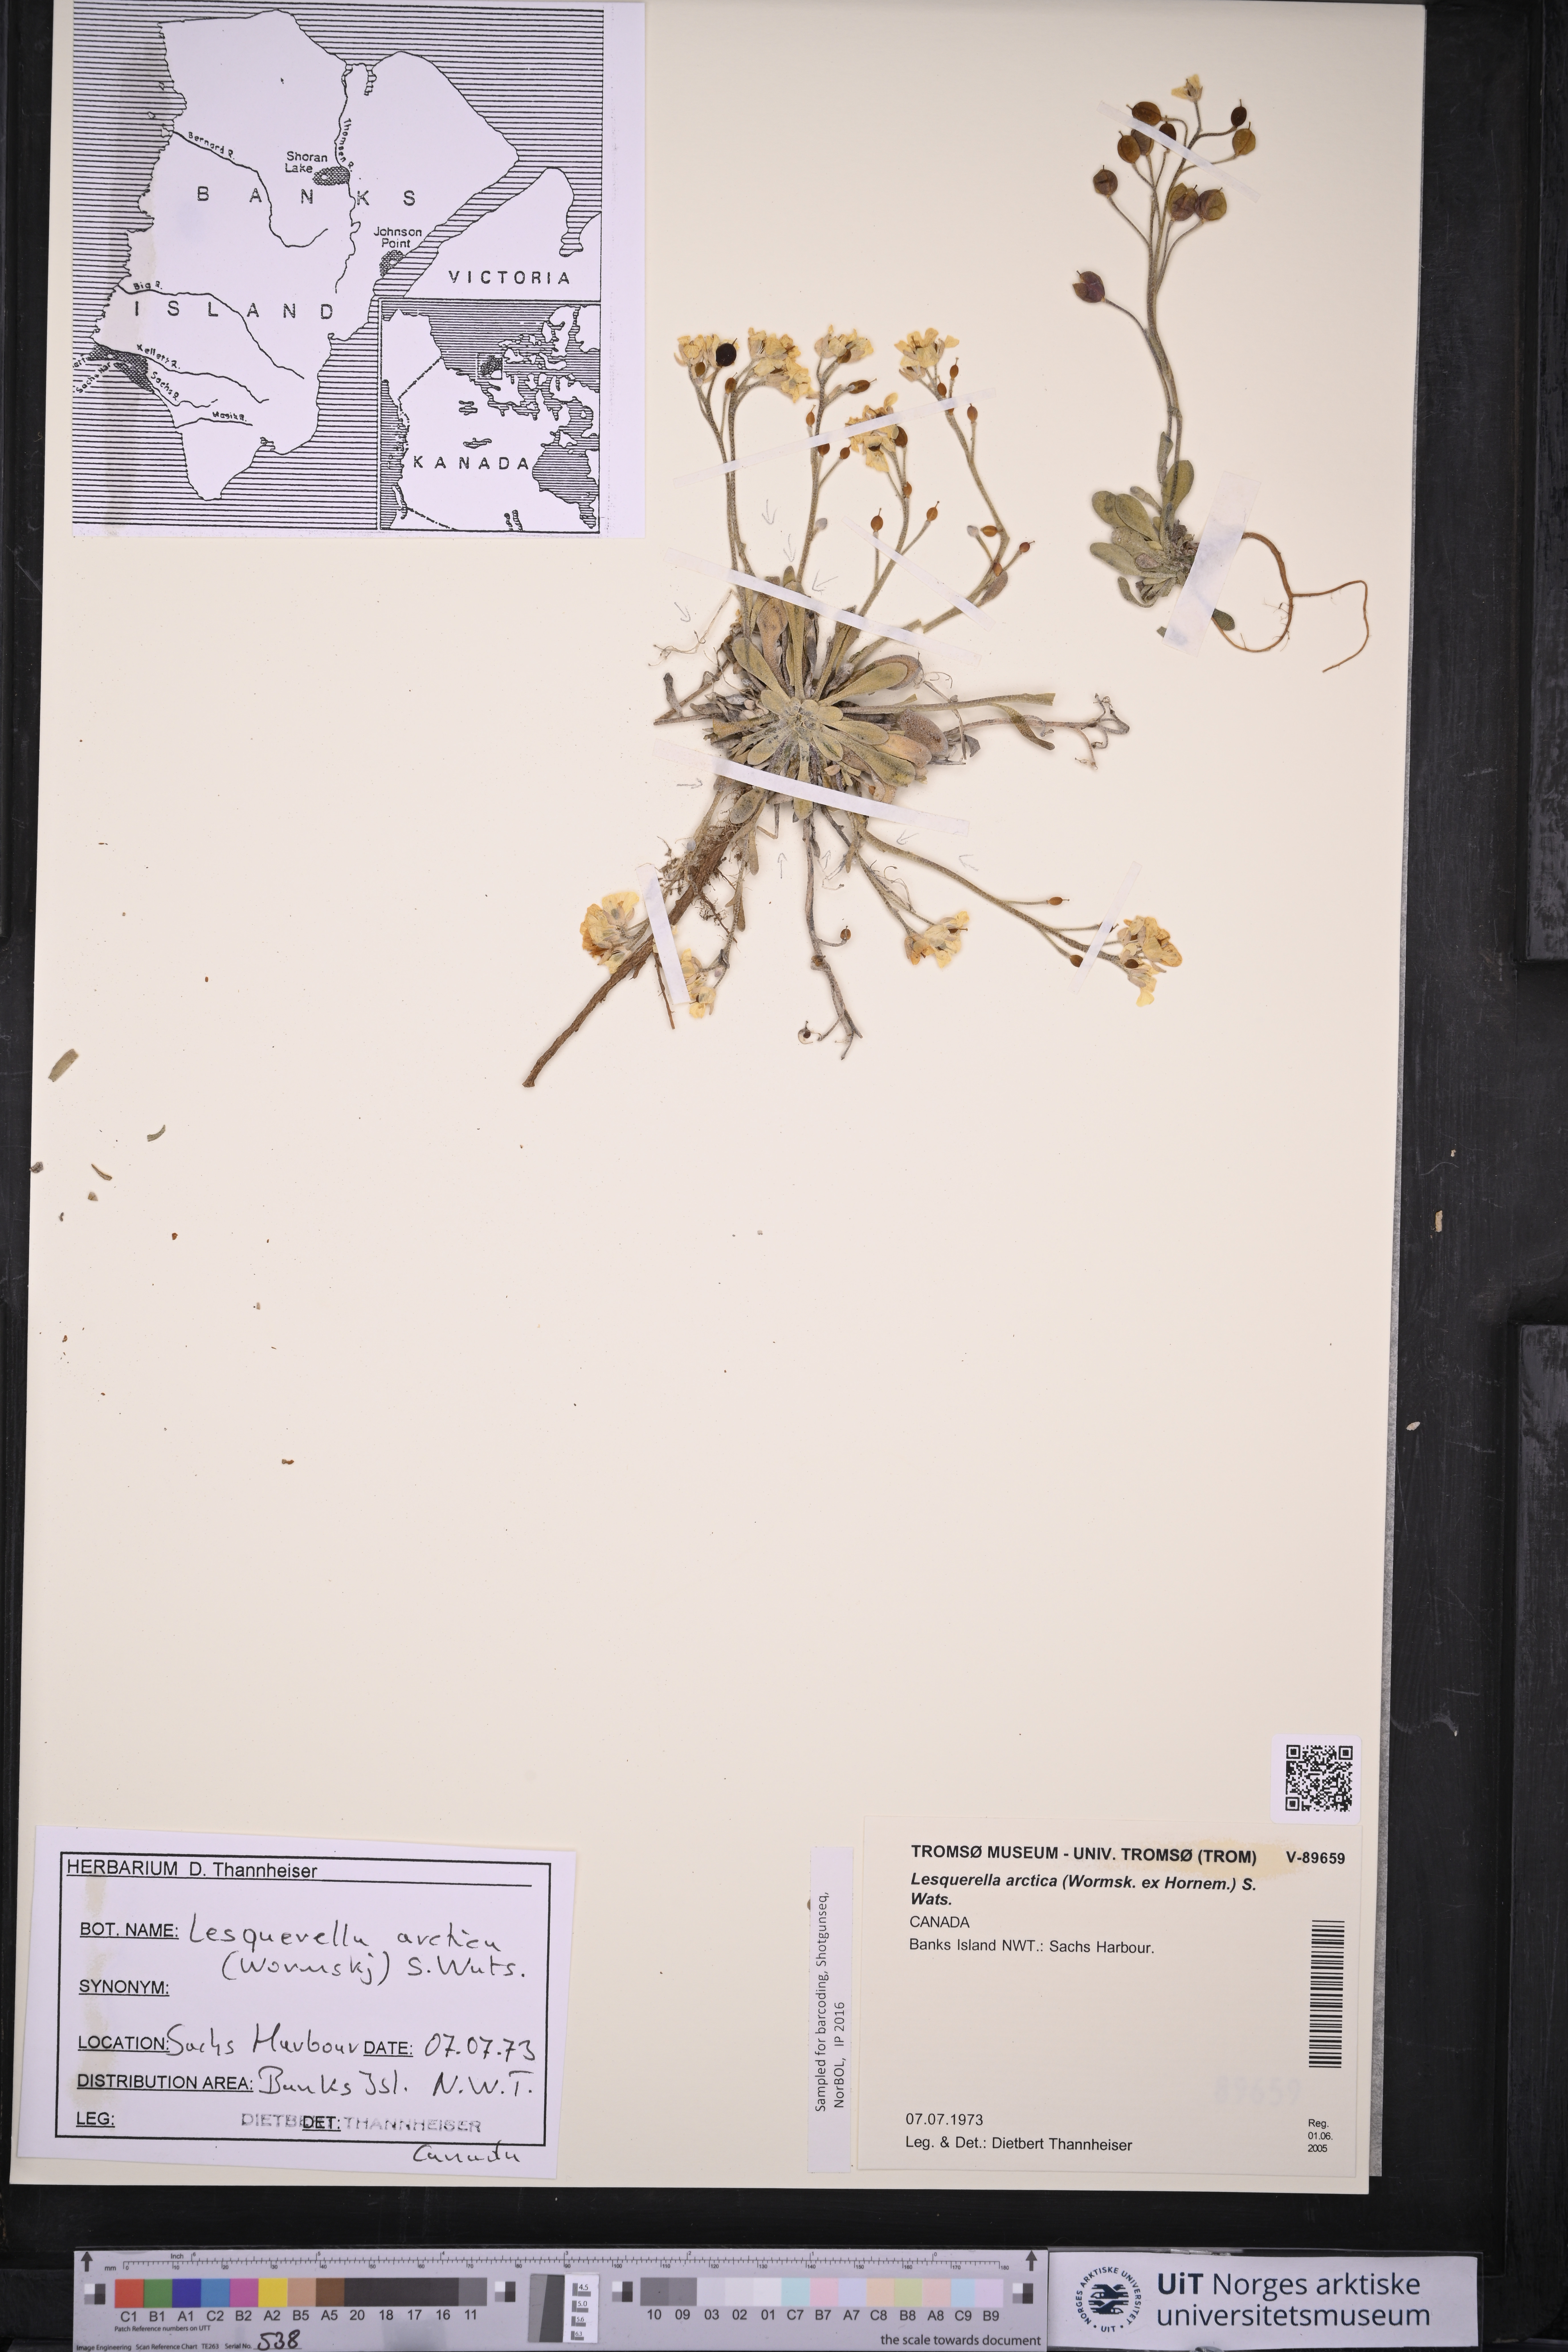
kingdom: Plantae
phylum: Tracheophyta
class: Magnoliopsida
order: Brassicales
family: Brassicaceae
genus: Physaria
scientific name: Physaria arctica
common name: Arctic bladderpod
